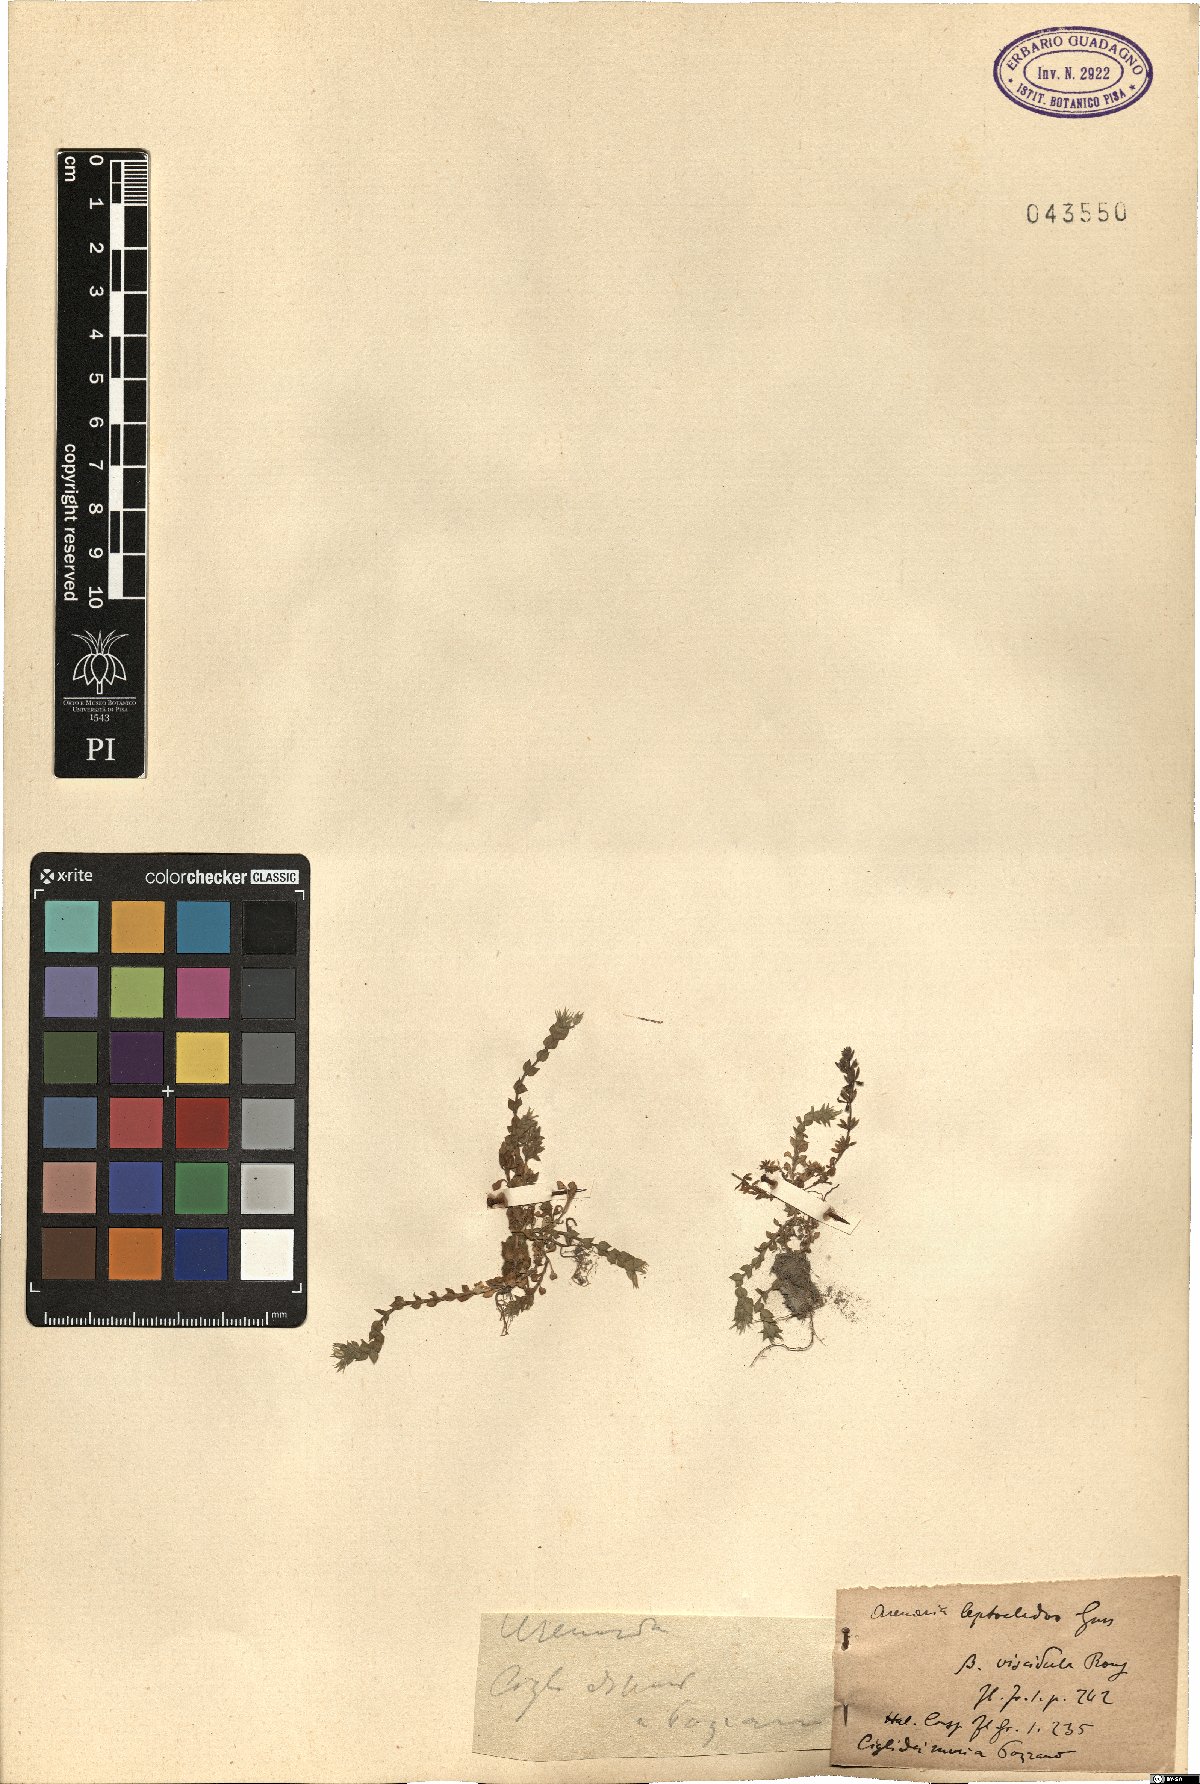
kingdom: Plantae
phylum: Tracheophyta
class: Magnoliopsida
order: Caryophyllales
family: Caryophyllaceae
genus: Arenaria
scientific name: Arenaria leptoclados
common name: Thyme-leaved sandwort
